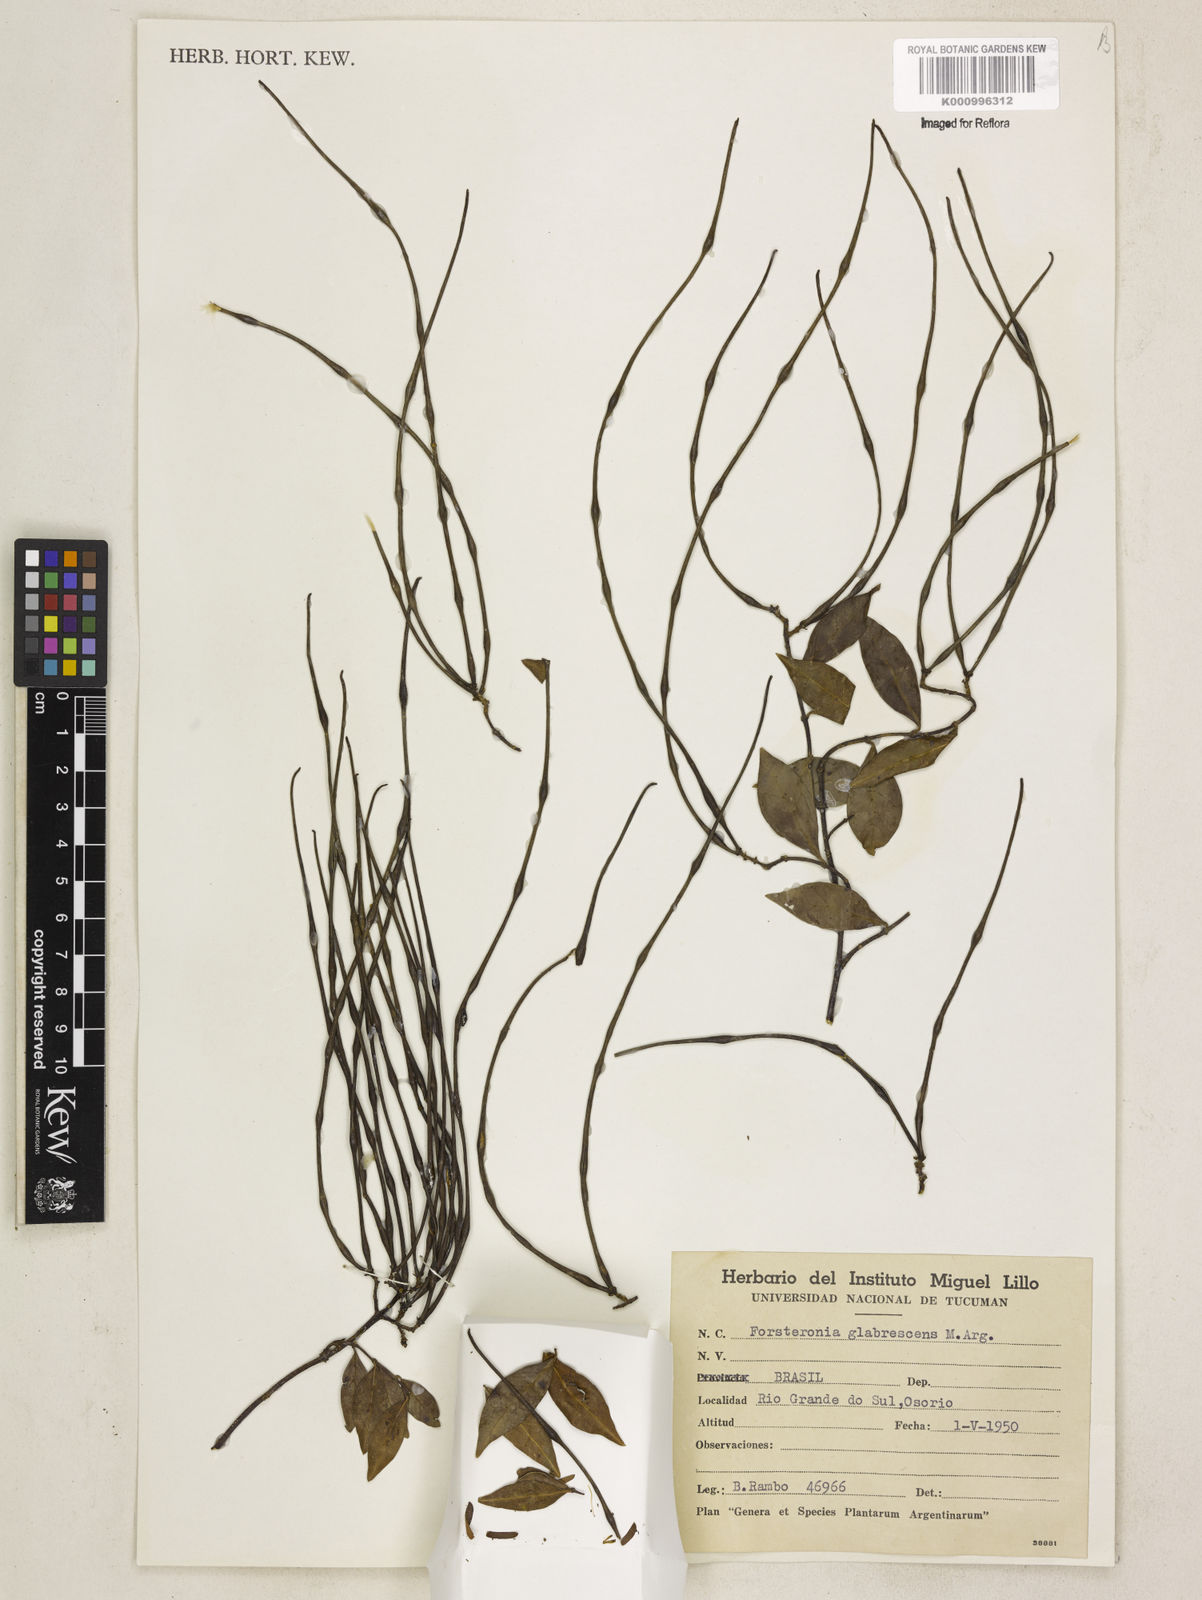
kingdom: Plantae
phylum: Tracheophyta
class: Magnoliopsida
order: Gentianales
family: Apocynaceae
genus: Forsteronia
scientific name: Forsteronia
